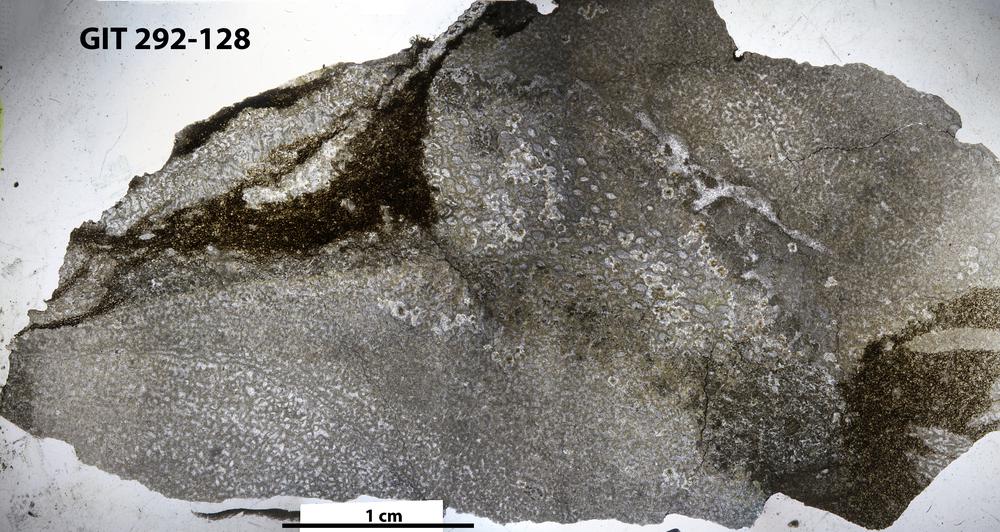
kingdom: Animalia
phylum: Porifera
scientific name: Porifera
